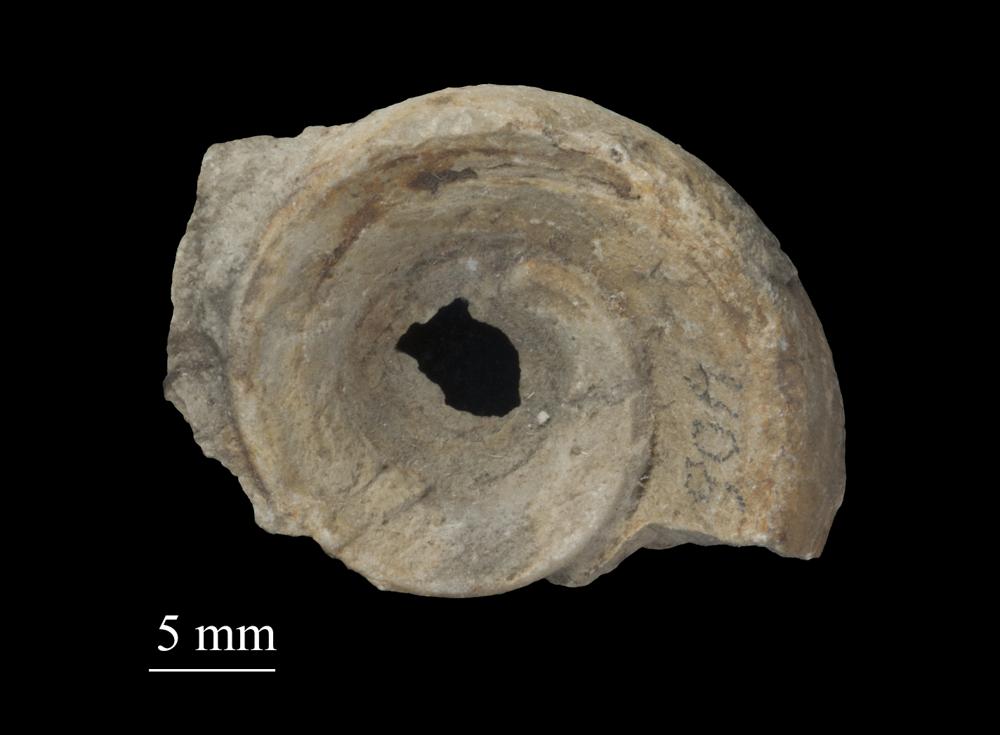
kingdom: Animalia
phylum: Mollusca
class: Gastropoda
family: Lesueurillidae
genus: Mestoronema
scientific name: Mestoronema Euomphalus marginalis
